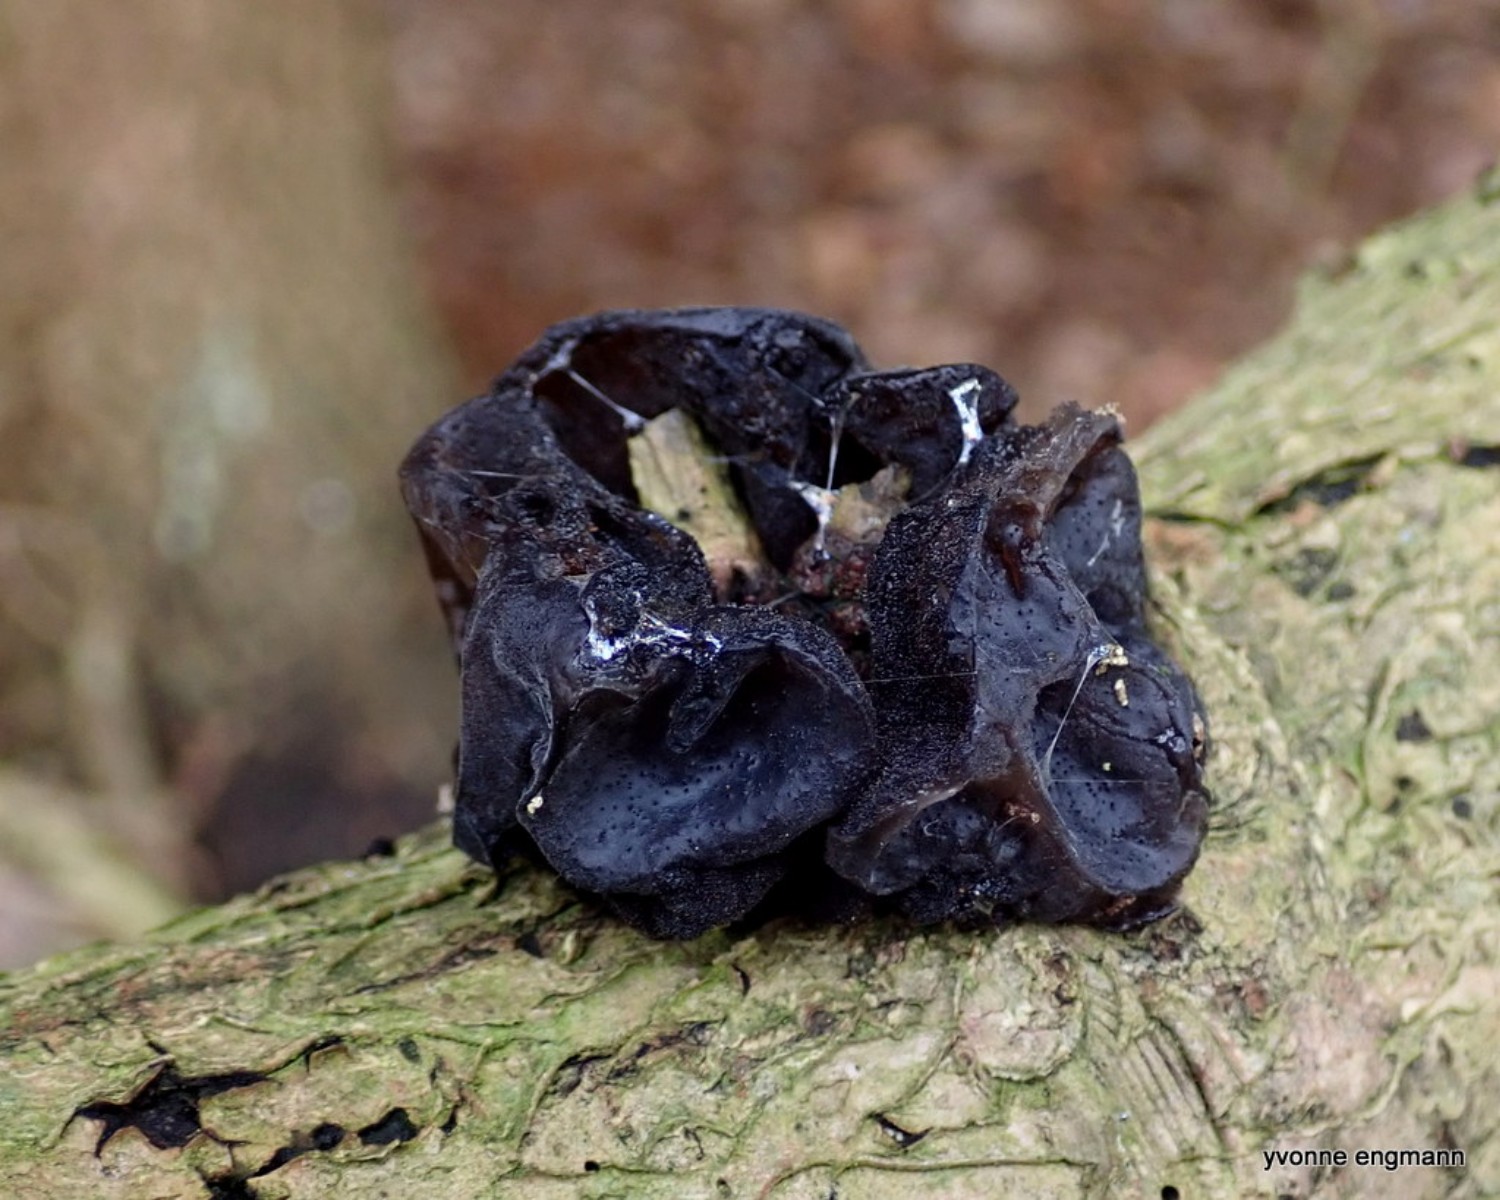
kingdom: Fungi
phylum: Basidiomycota
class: Agaricomycetes
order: Auriculariales
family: Auriculariaceae
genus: Exidia
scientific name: Exidia glandulosa
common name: ege-bævretop
